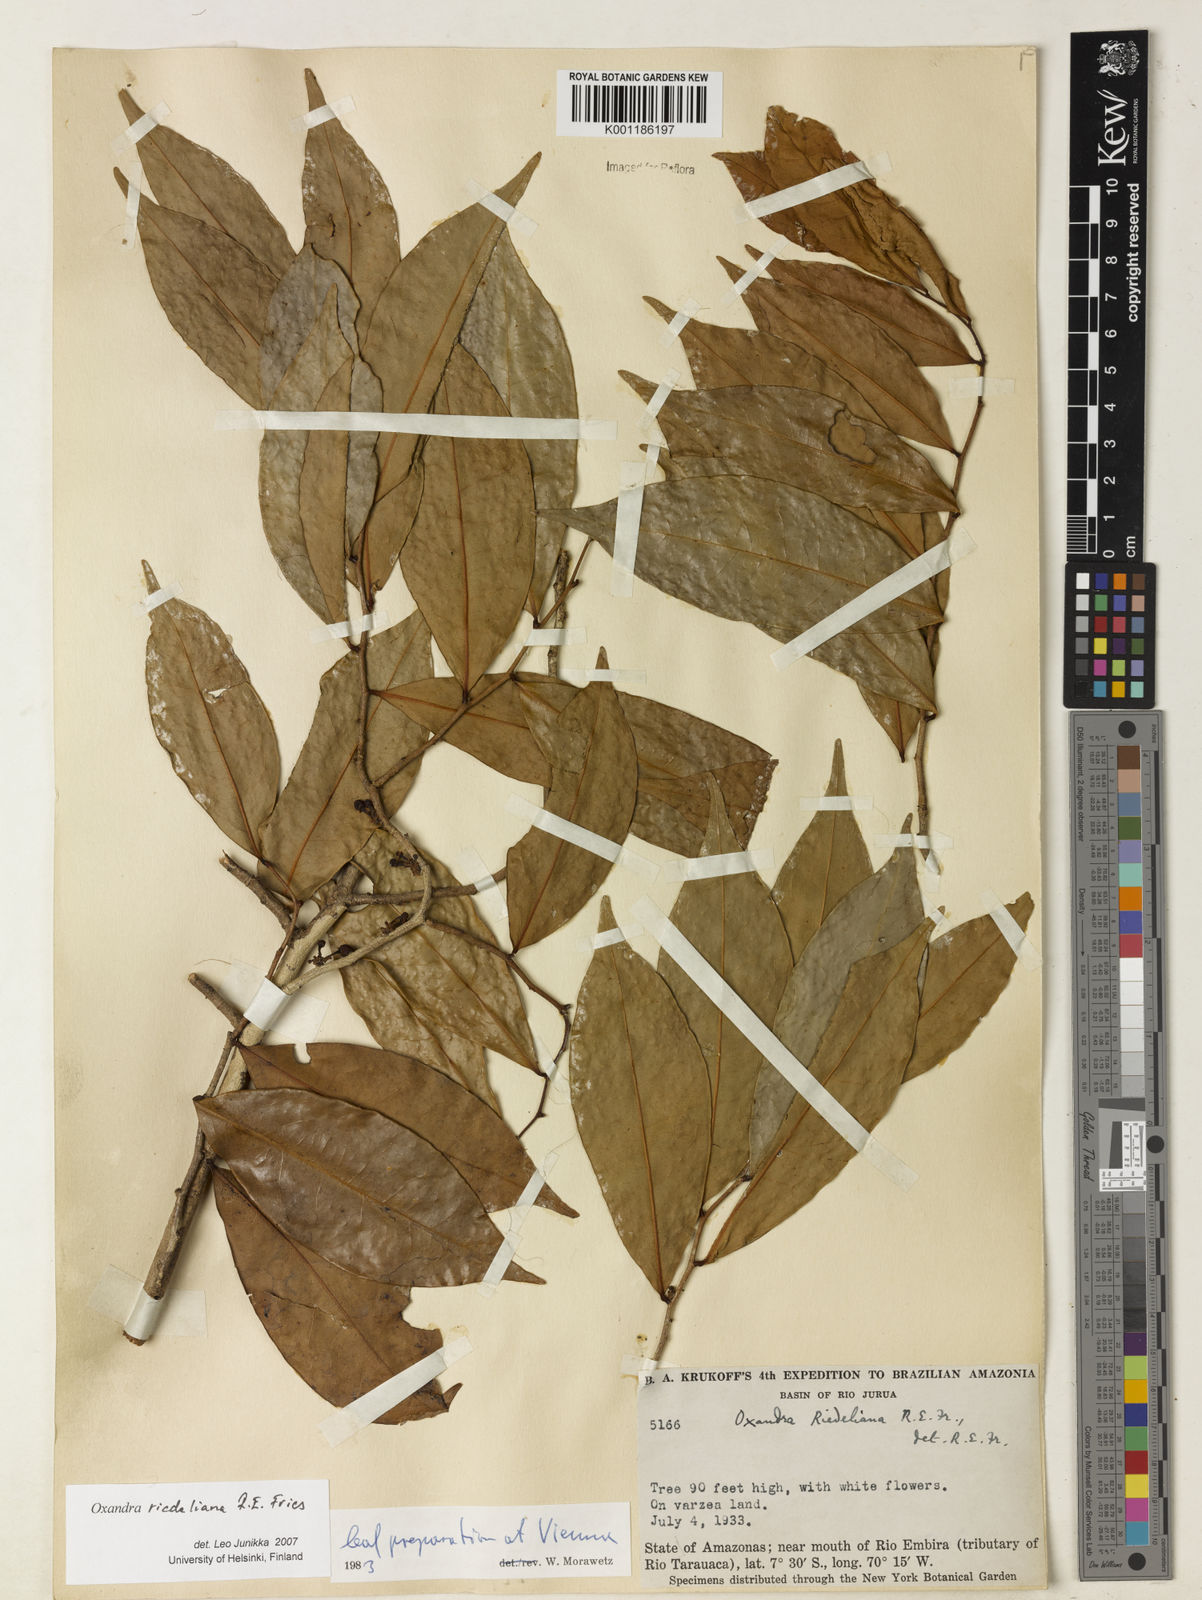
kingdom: Plantae
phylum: Tracheophyta
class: Magnoliopsida
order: Magnoliales
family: Annonaceae
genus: Oxandra
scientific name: Oxandra riedeliana
